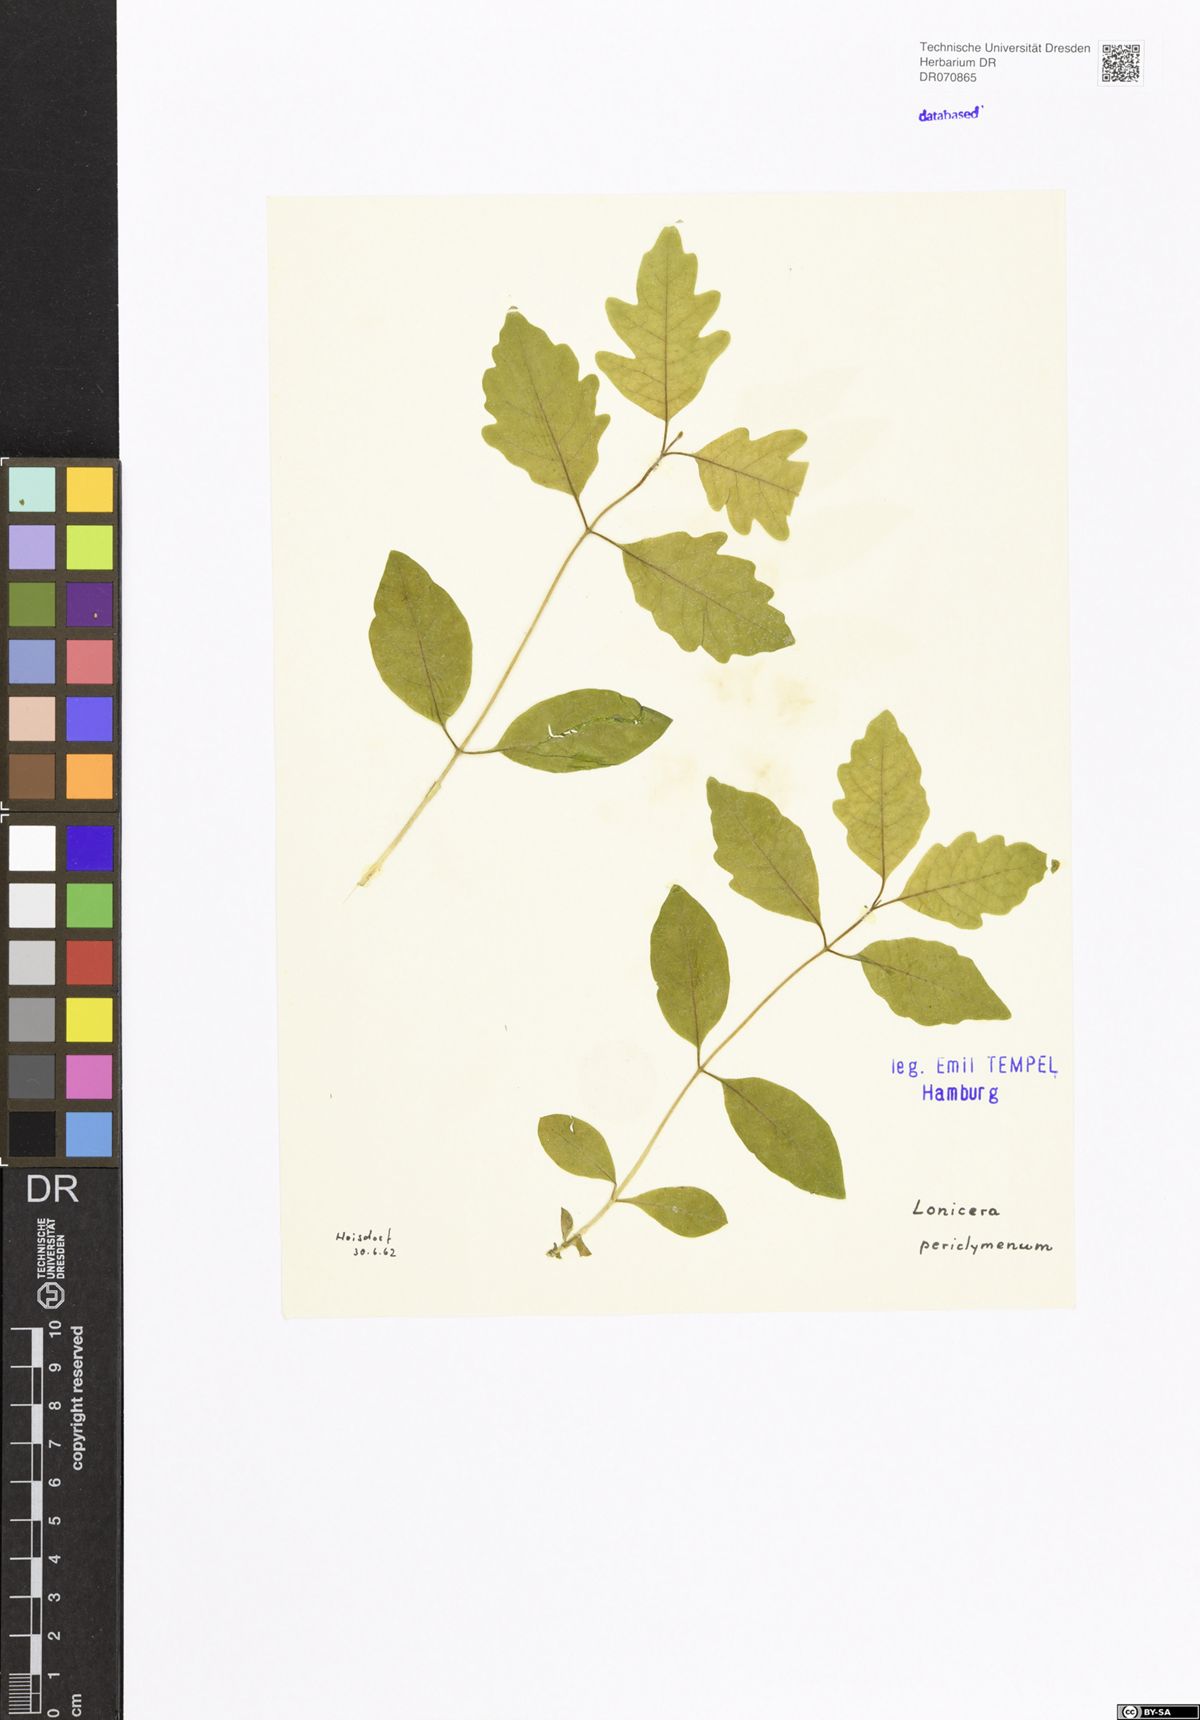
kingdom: Plantae
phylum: Tracheophyta
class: Magnoliopsida
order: Dipsacales
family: Caprifoliaceae
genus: Lonicera
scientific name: Lonicera periclymenum
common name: European honeysuckle
